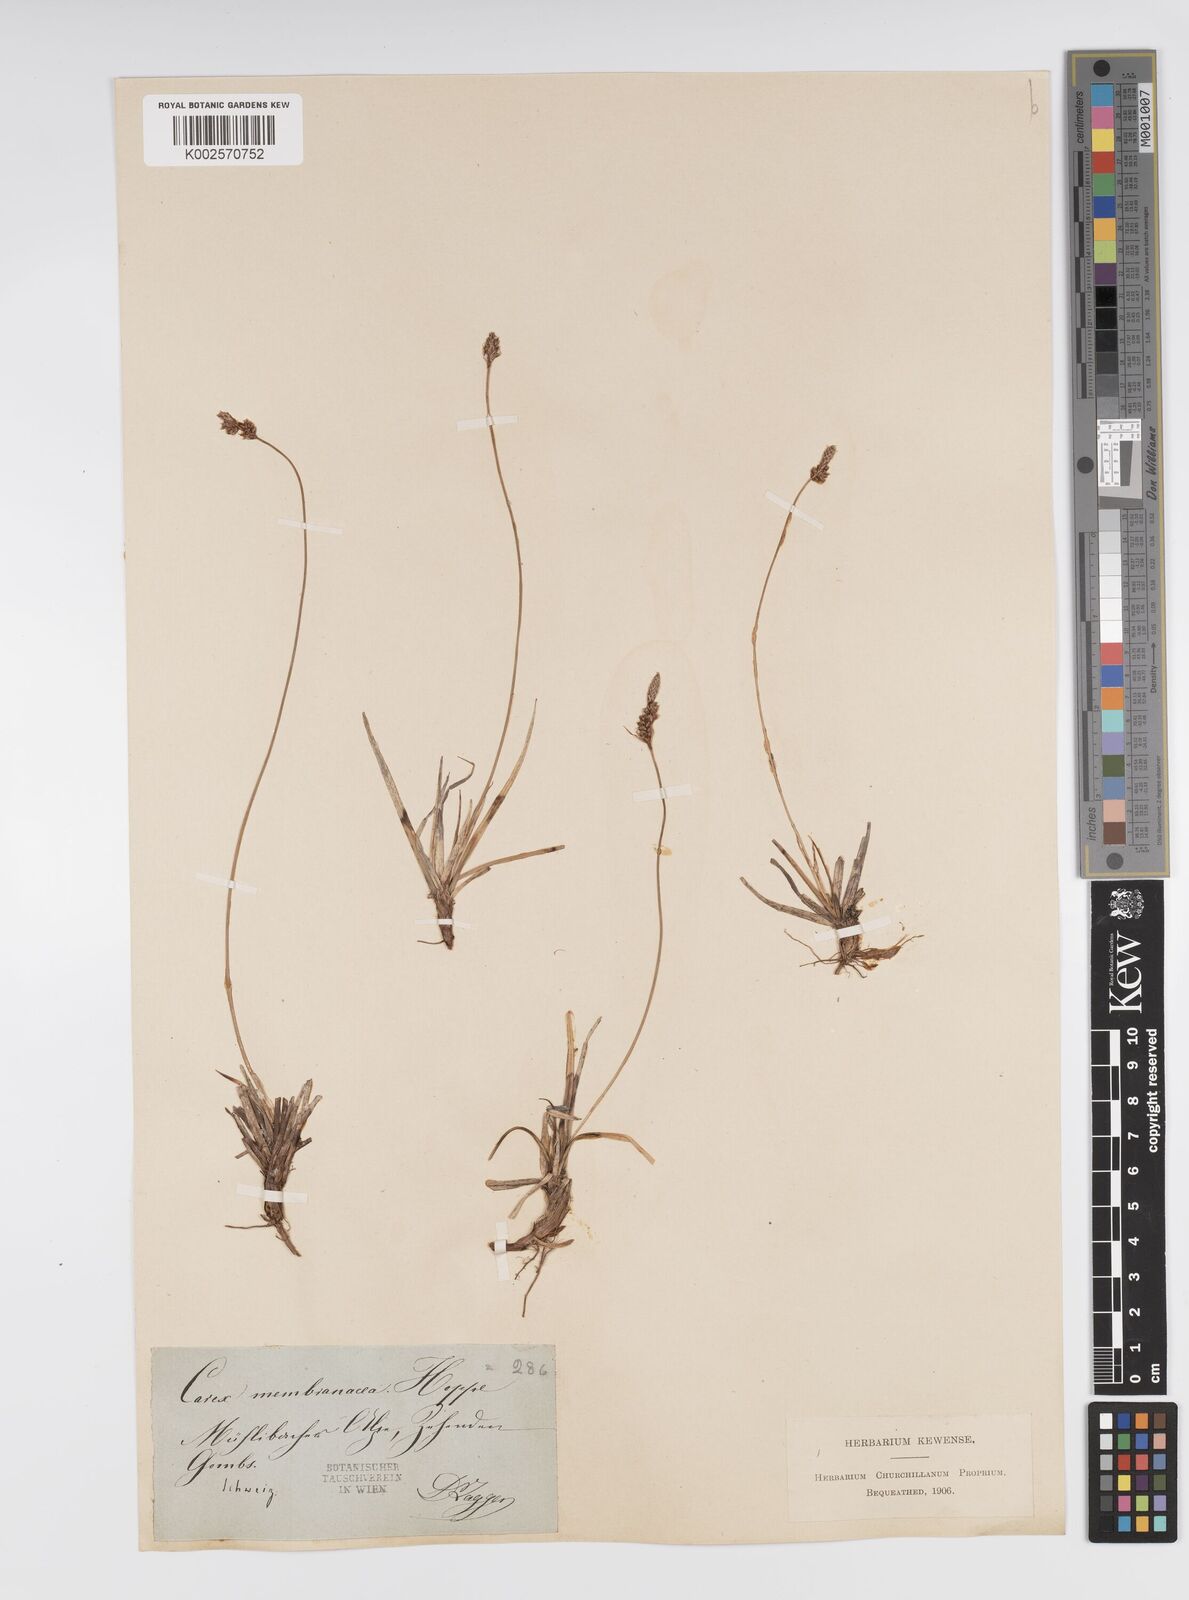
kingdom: Plantae
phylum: Tracheophyta
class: Liliopsida
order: Poales
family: Cyperaceae
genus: Carex
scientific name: Carex ericetorum
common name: Rare spring-sedge
